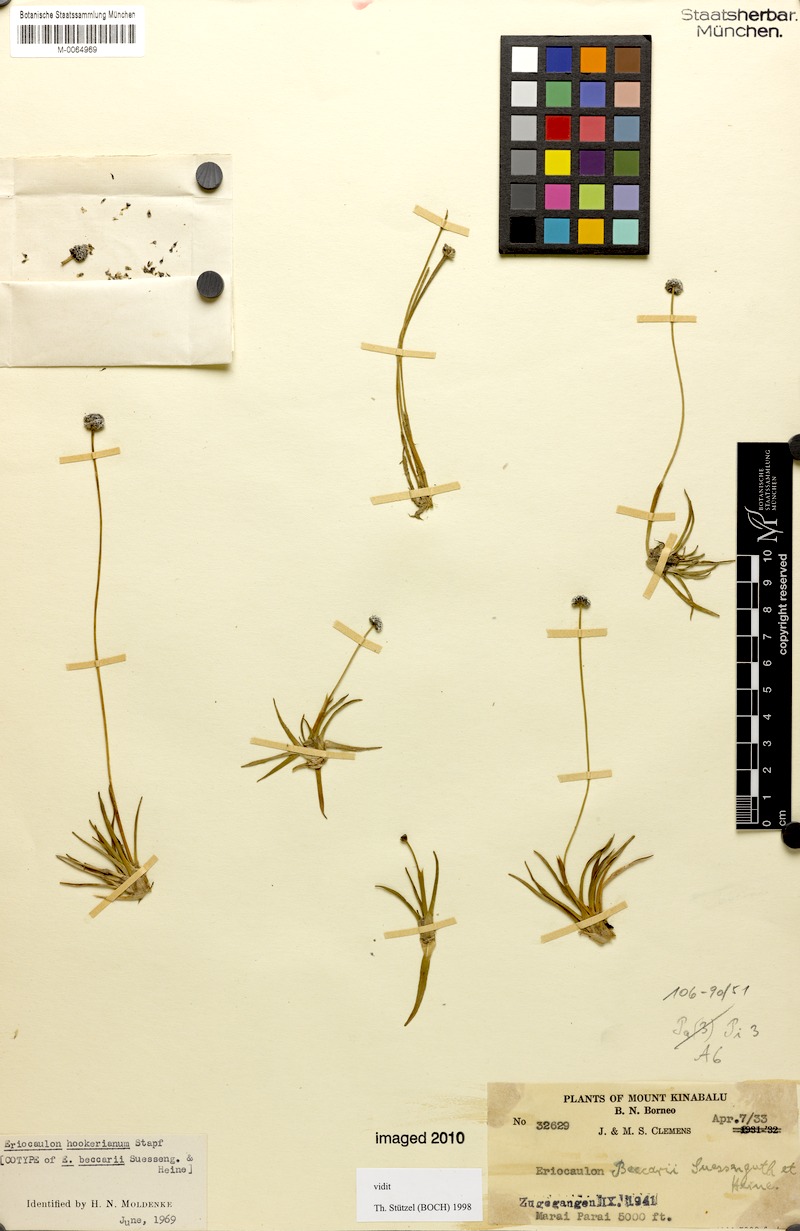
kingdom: Plantae
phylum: Tracheophyta
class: Liliopsida
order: Poales
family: Eriocaulaceae
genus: Eriocaulon
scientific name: Eriocaulon hookerianum
